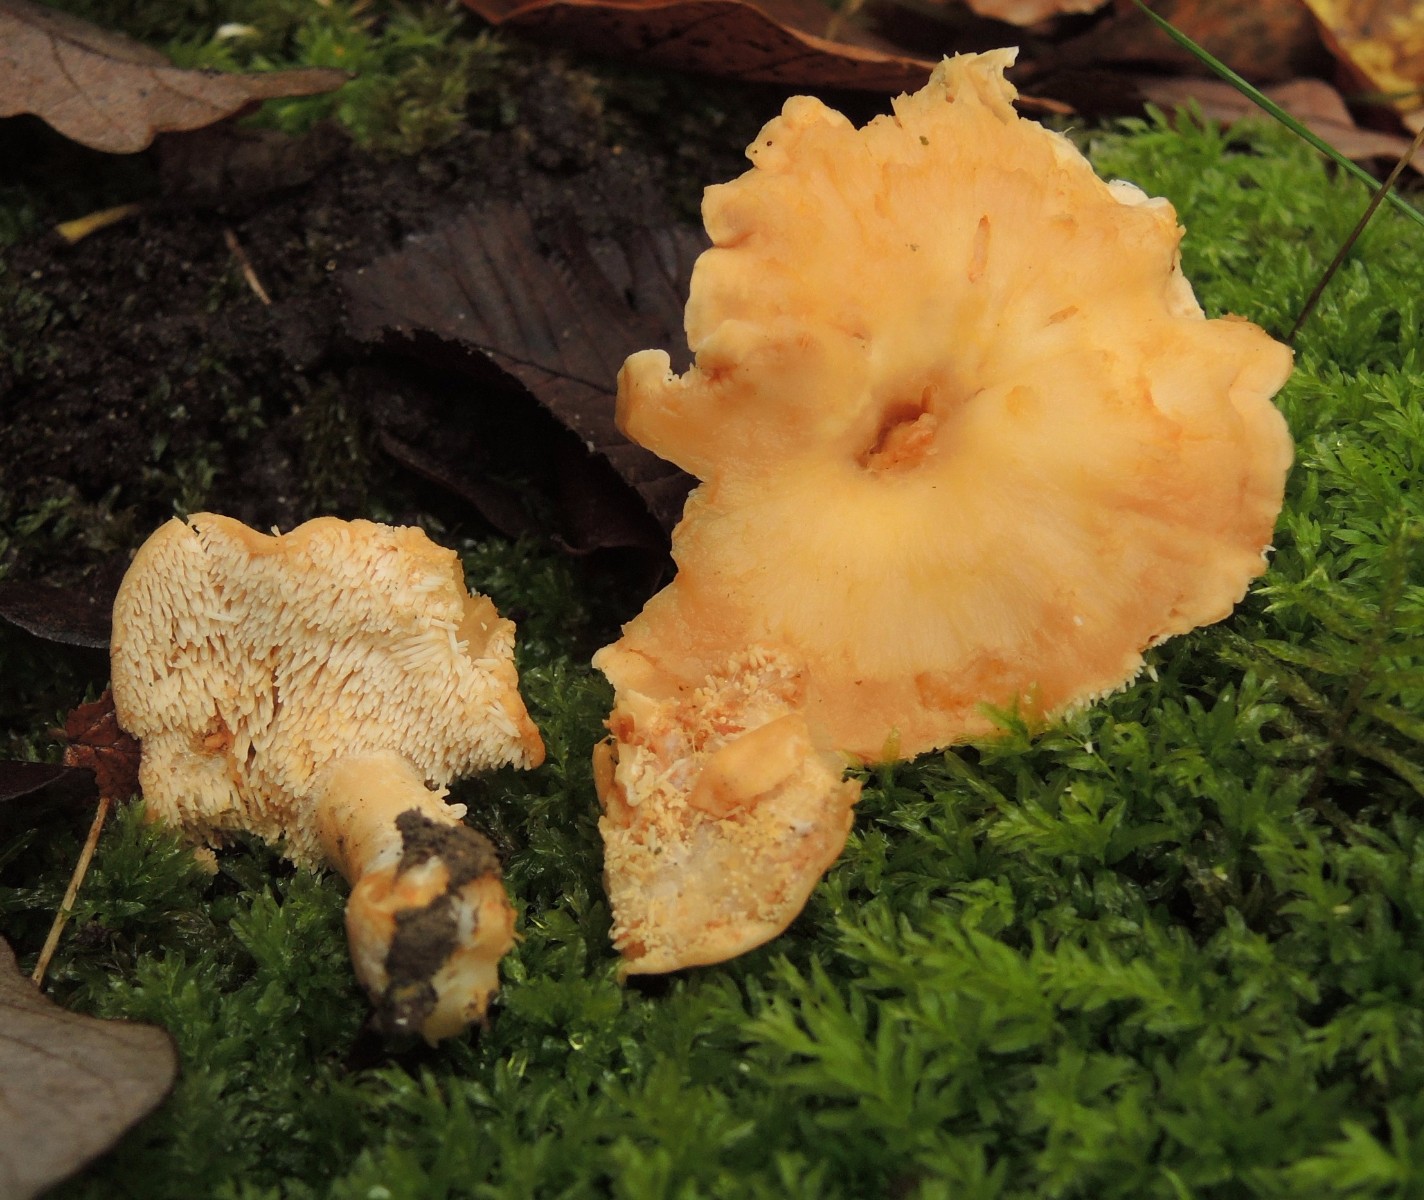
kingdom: Fungi
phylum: Basidiomycota
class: Agaricomycetes
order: Cantharellales
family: Hydnaceae
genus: Hydnum
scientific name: Hydnum umbilicatum
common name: navle-pigsvamp
